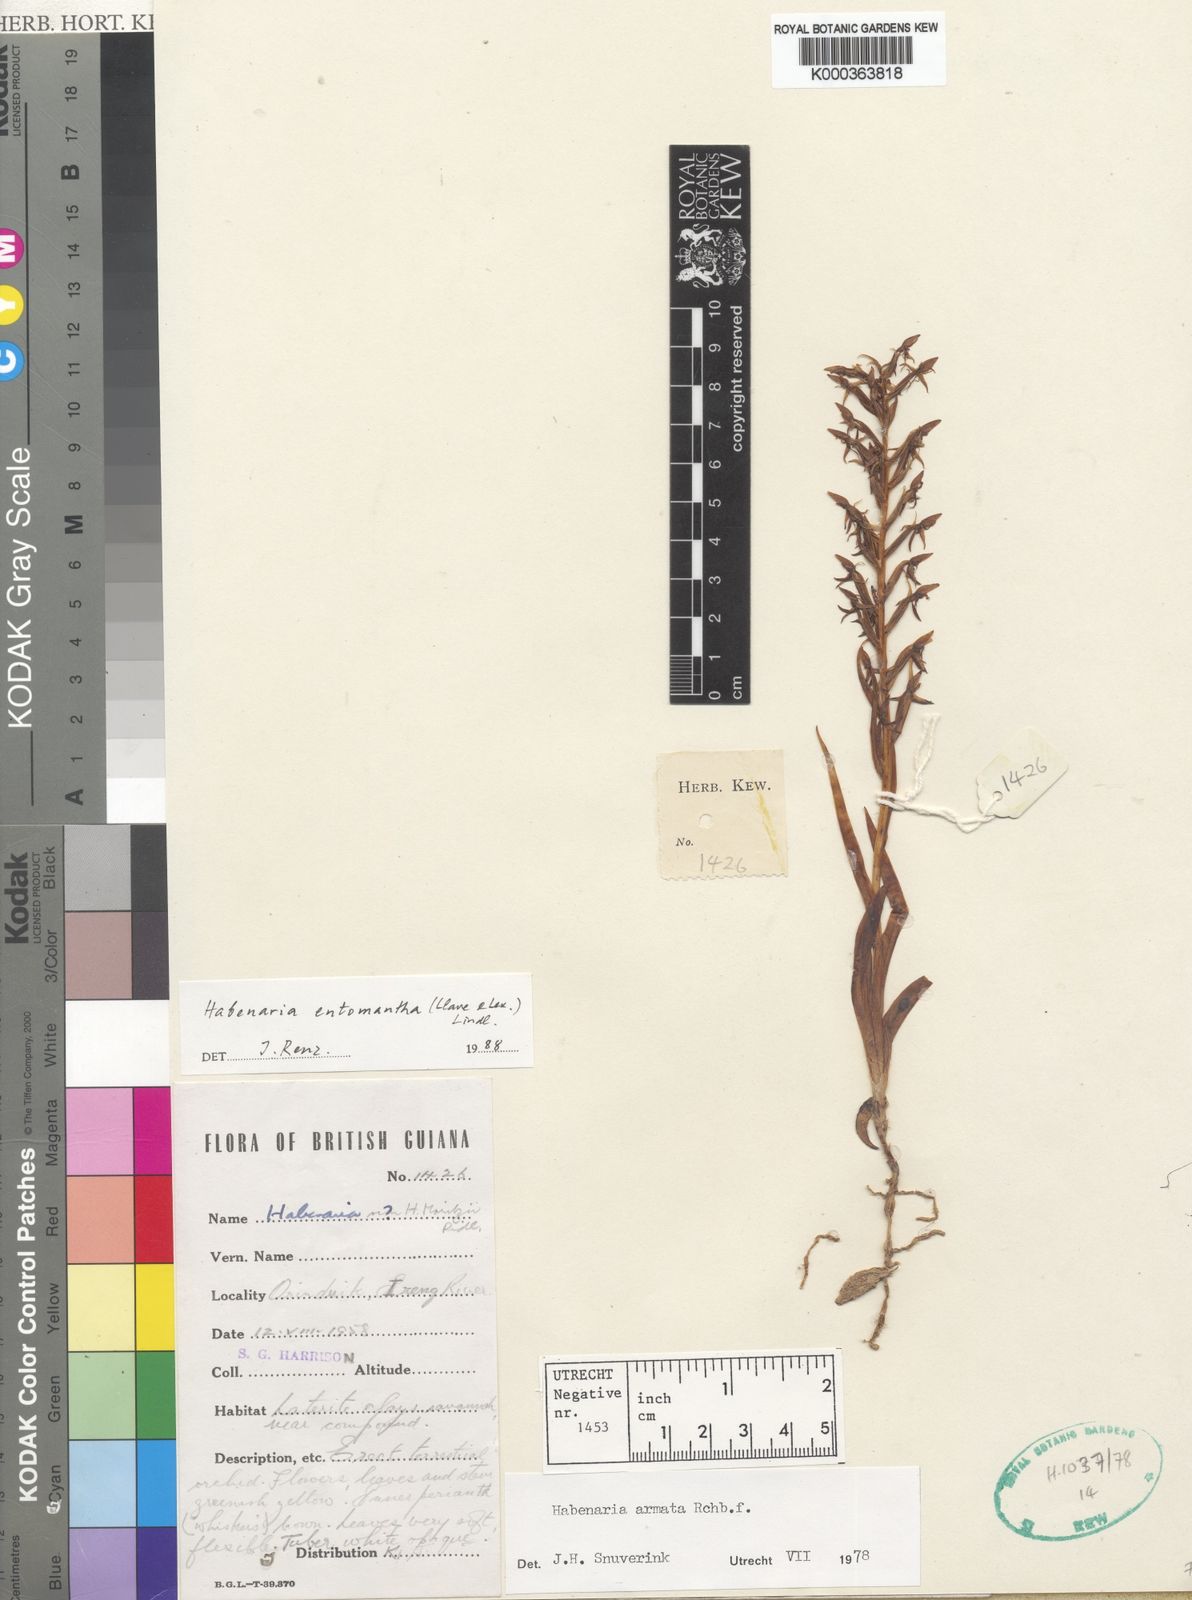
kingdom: Plantae
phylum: Tracheophyta
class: Liliopsida
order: Asparagales
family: Orchidaceae
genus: Habenaria
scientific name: Habenaria armata
